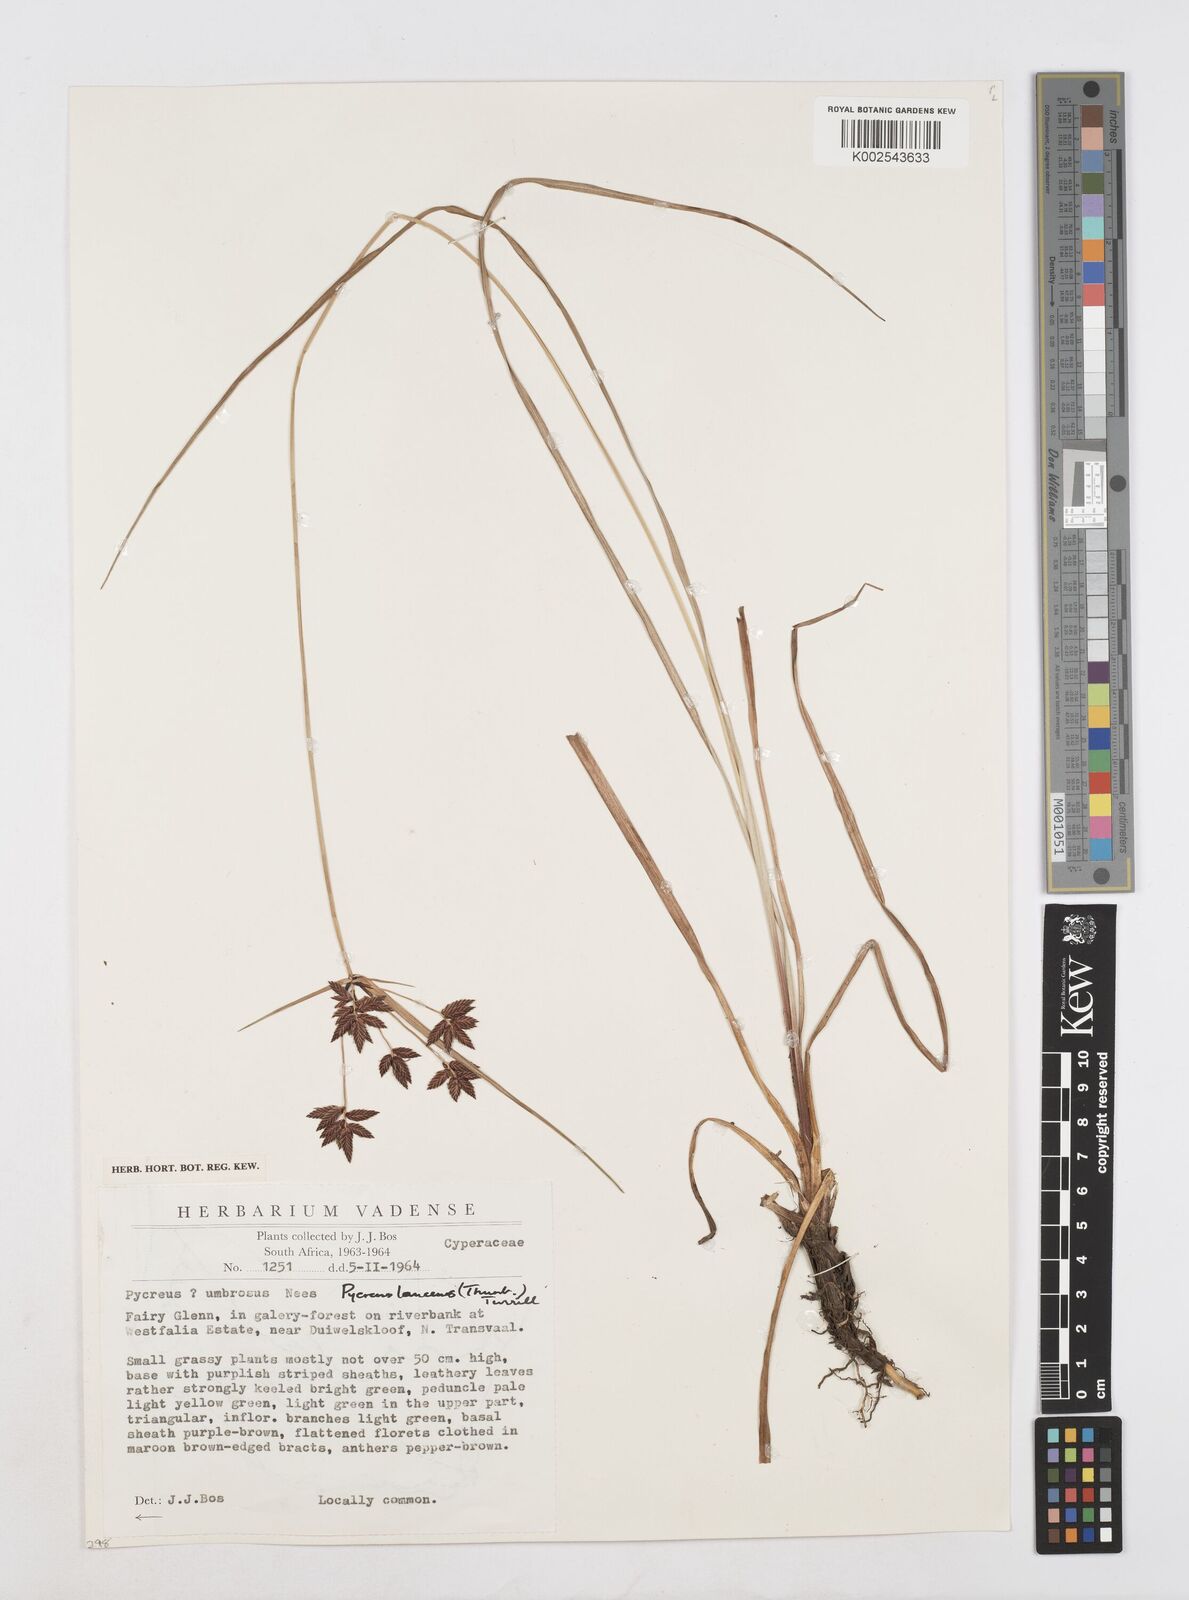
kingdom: Plantae
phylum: Tracheophyta
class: Liliopsida
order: Poales
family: Cyperaceae
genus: Cyperus
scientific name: Cyperus nitidus
